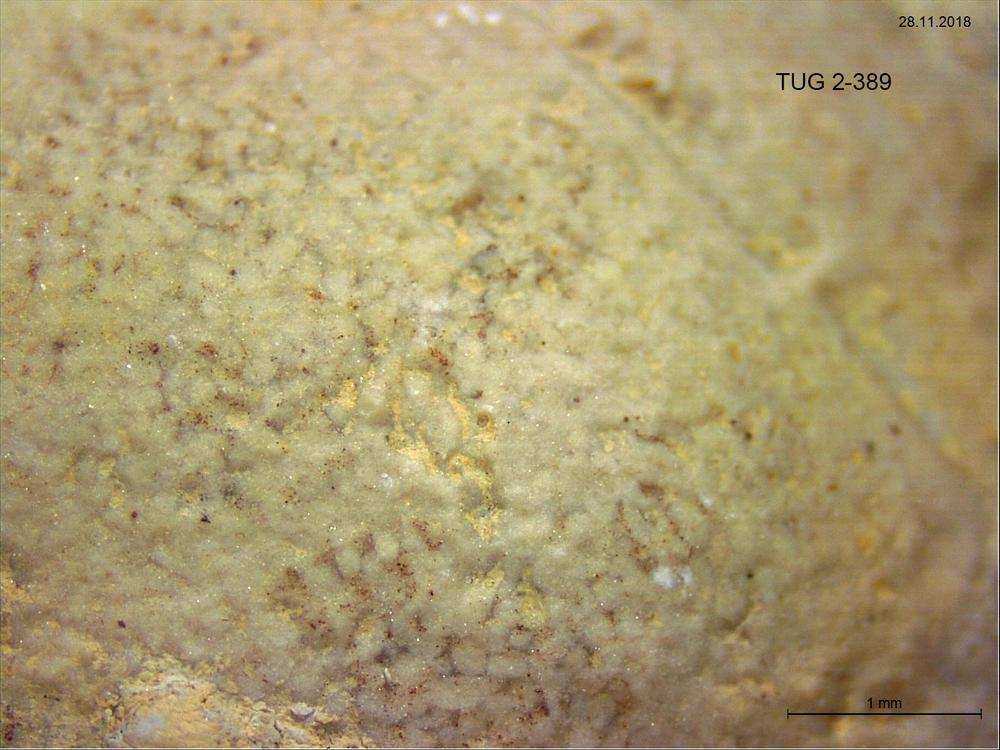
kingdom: Animalia
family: Coprulidae
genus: Coprulus
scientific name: Coprulus
